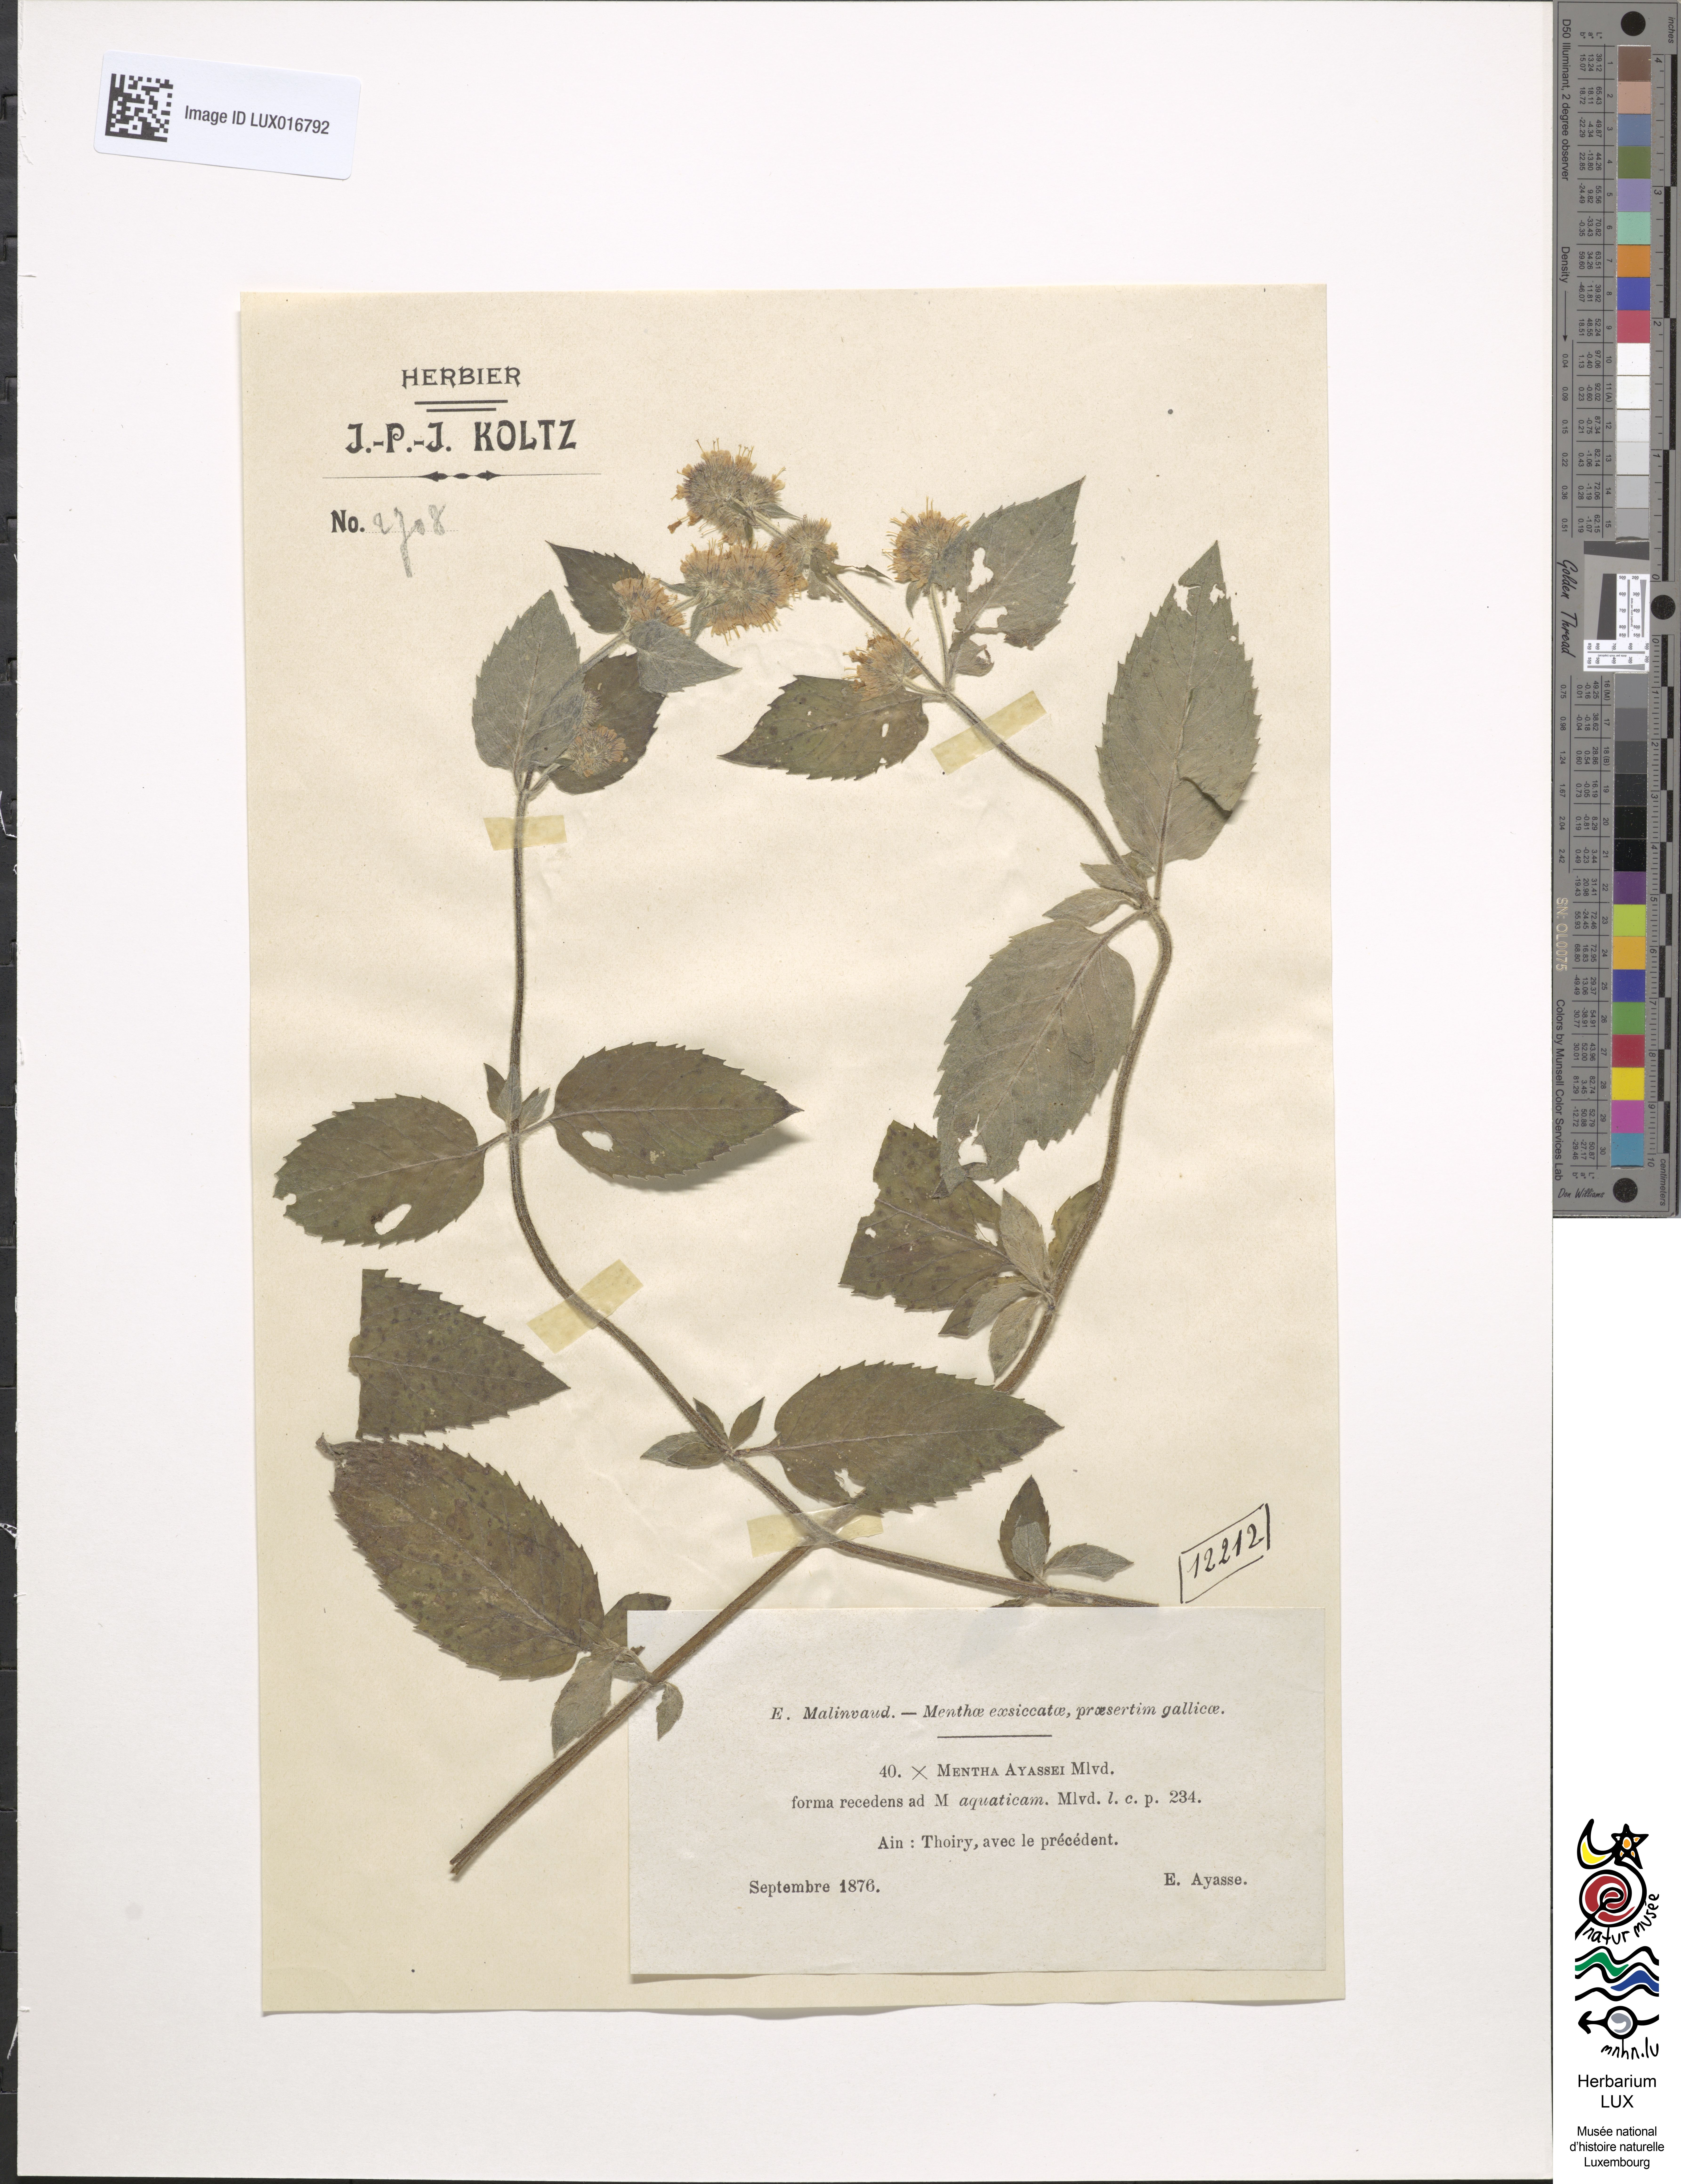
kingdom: Plantae
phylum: Tracheophyta
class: Magnoliopsida
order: Lamiales
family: Lamiaceae
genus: Mentha
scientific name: Mentha dumetorum
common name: Bush-loving mint
